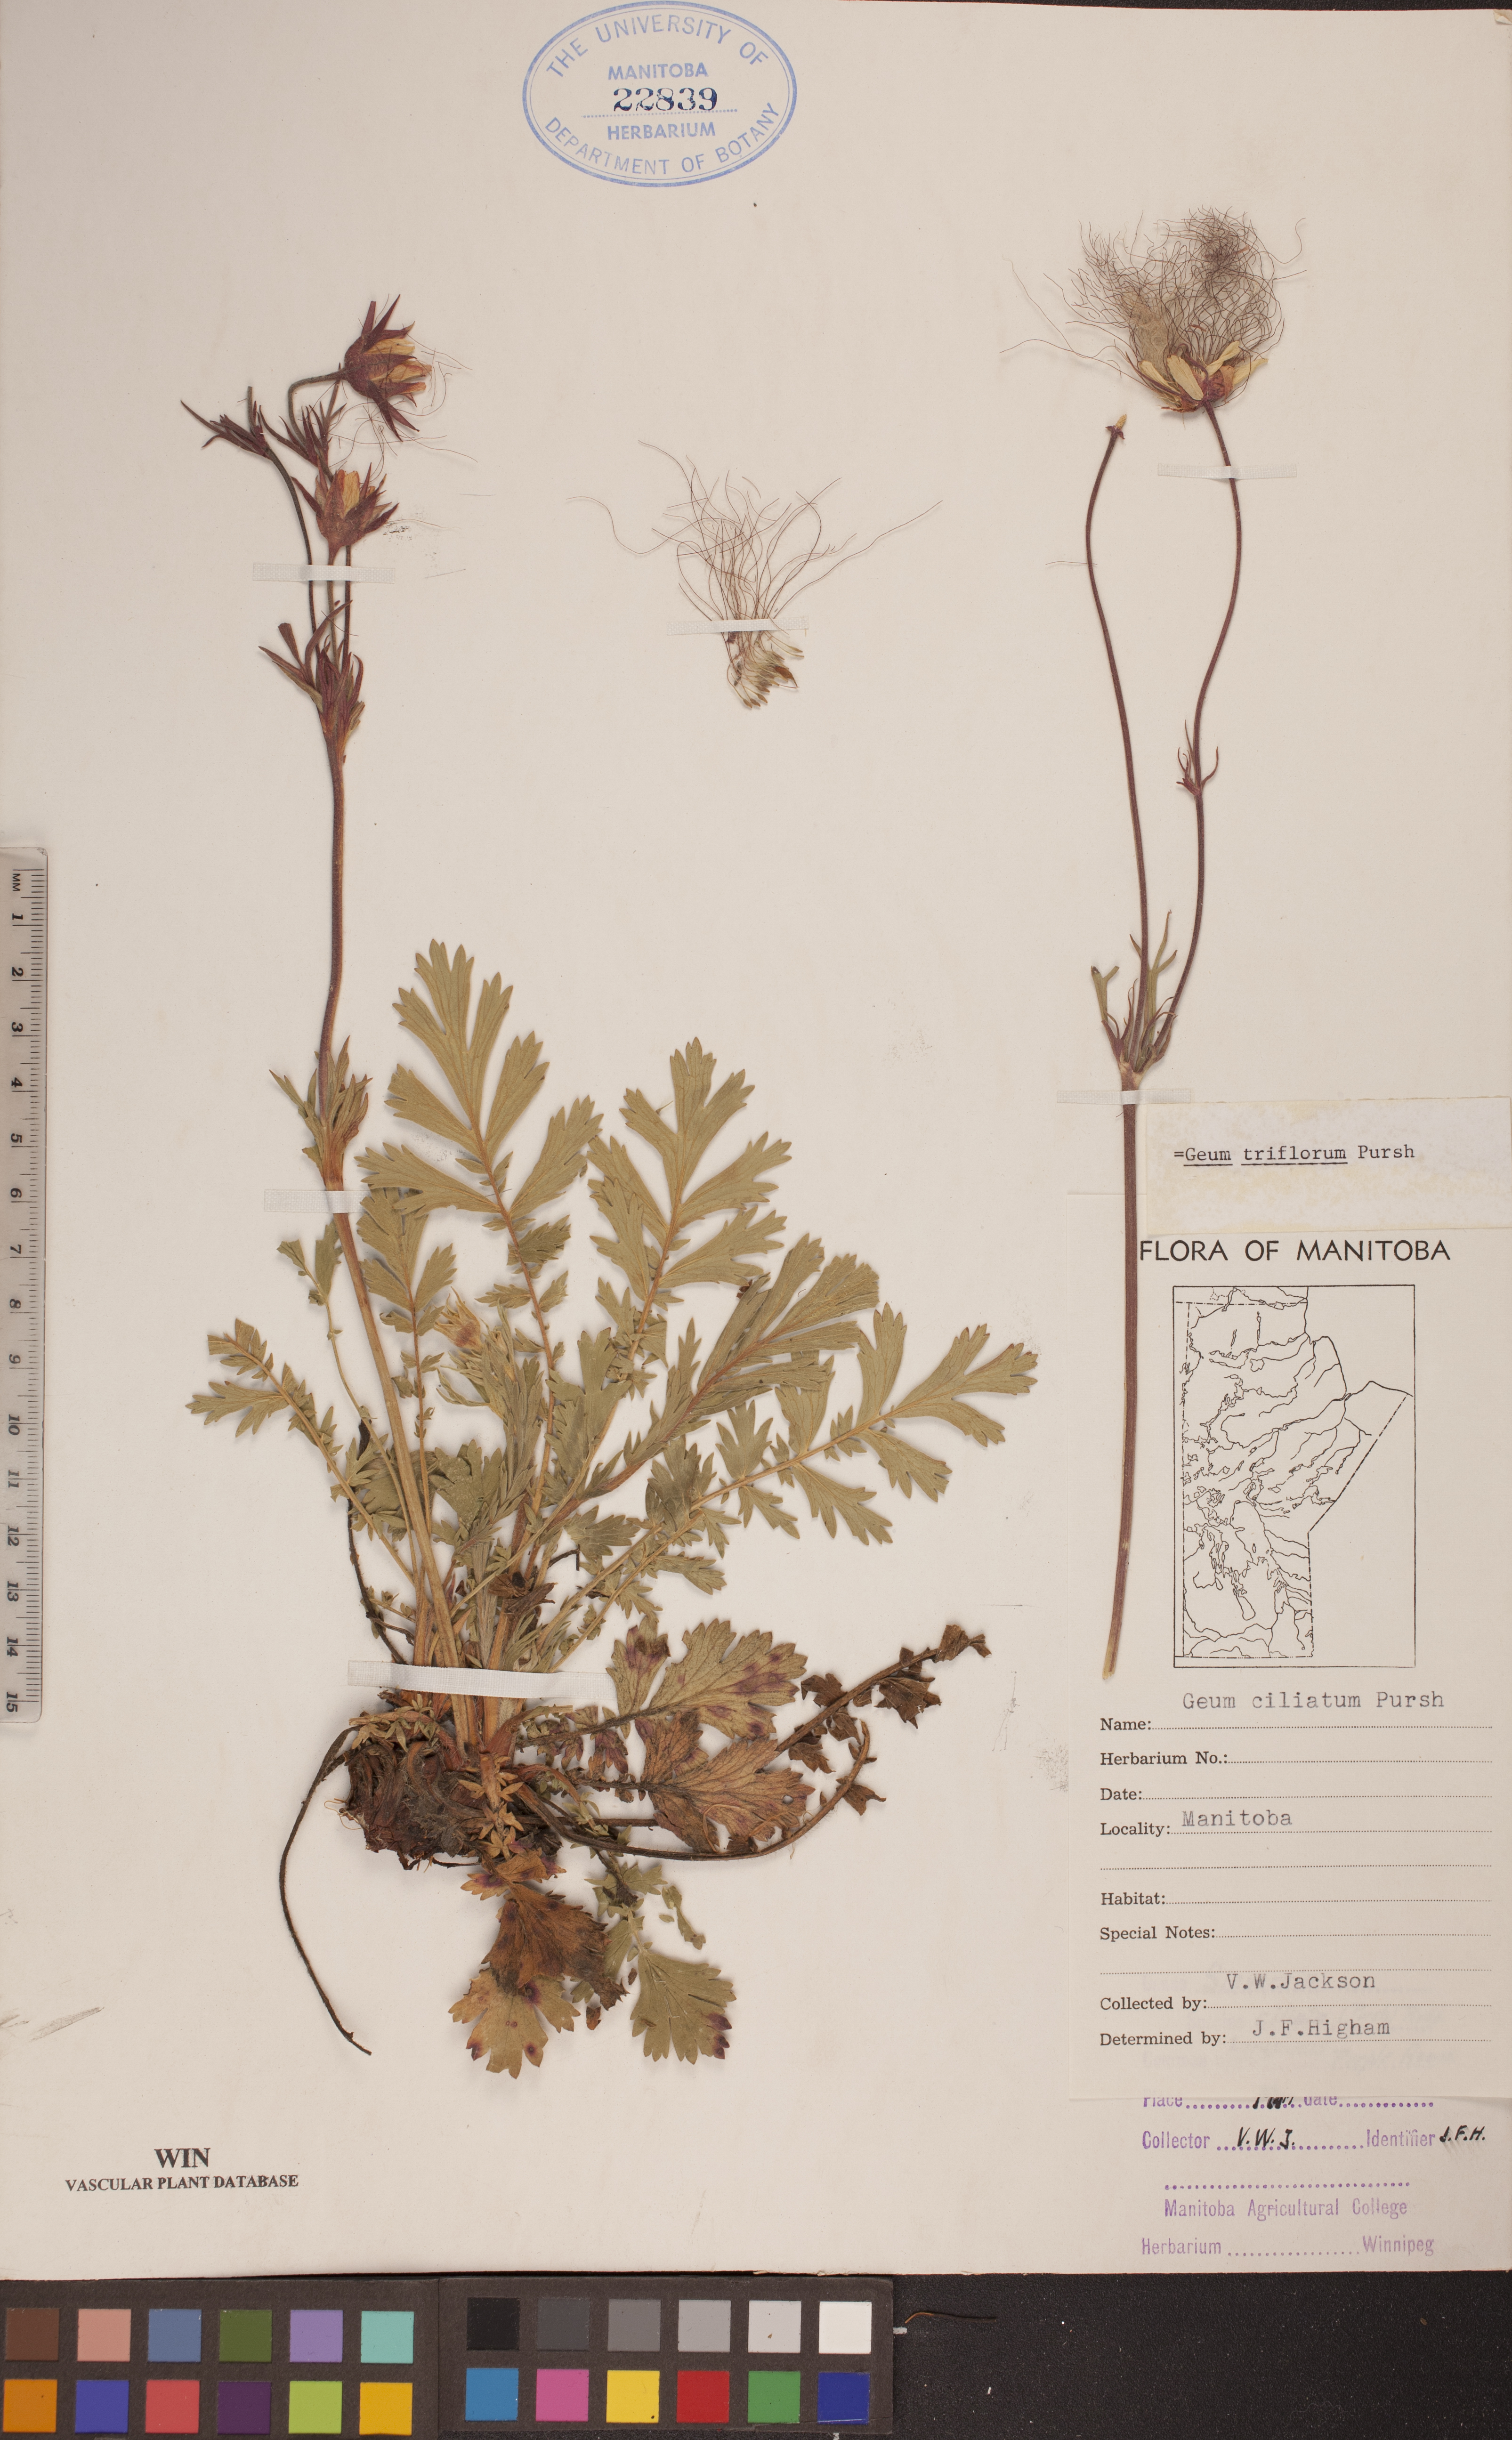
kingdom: Plantae
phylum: Tracheophyta
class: Magnoliopsida
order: Rosales
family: Rosaceae
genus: Geum
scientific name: Geum triflorum
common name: Old man's whiskers
